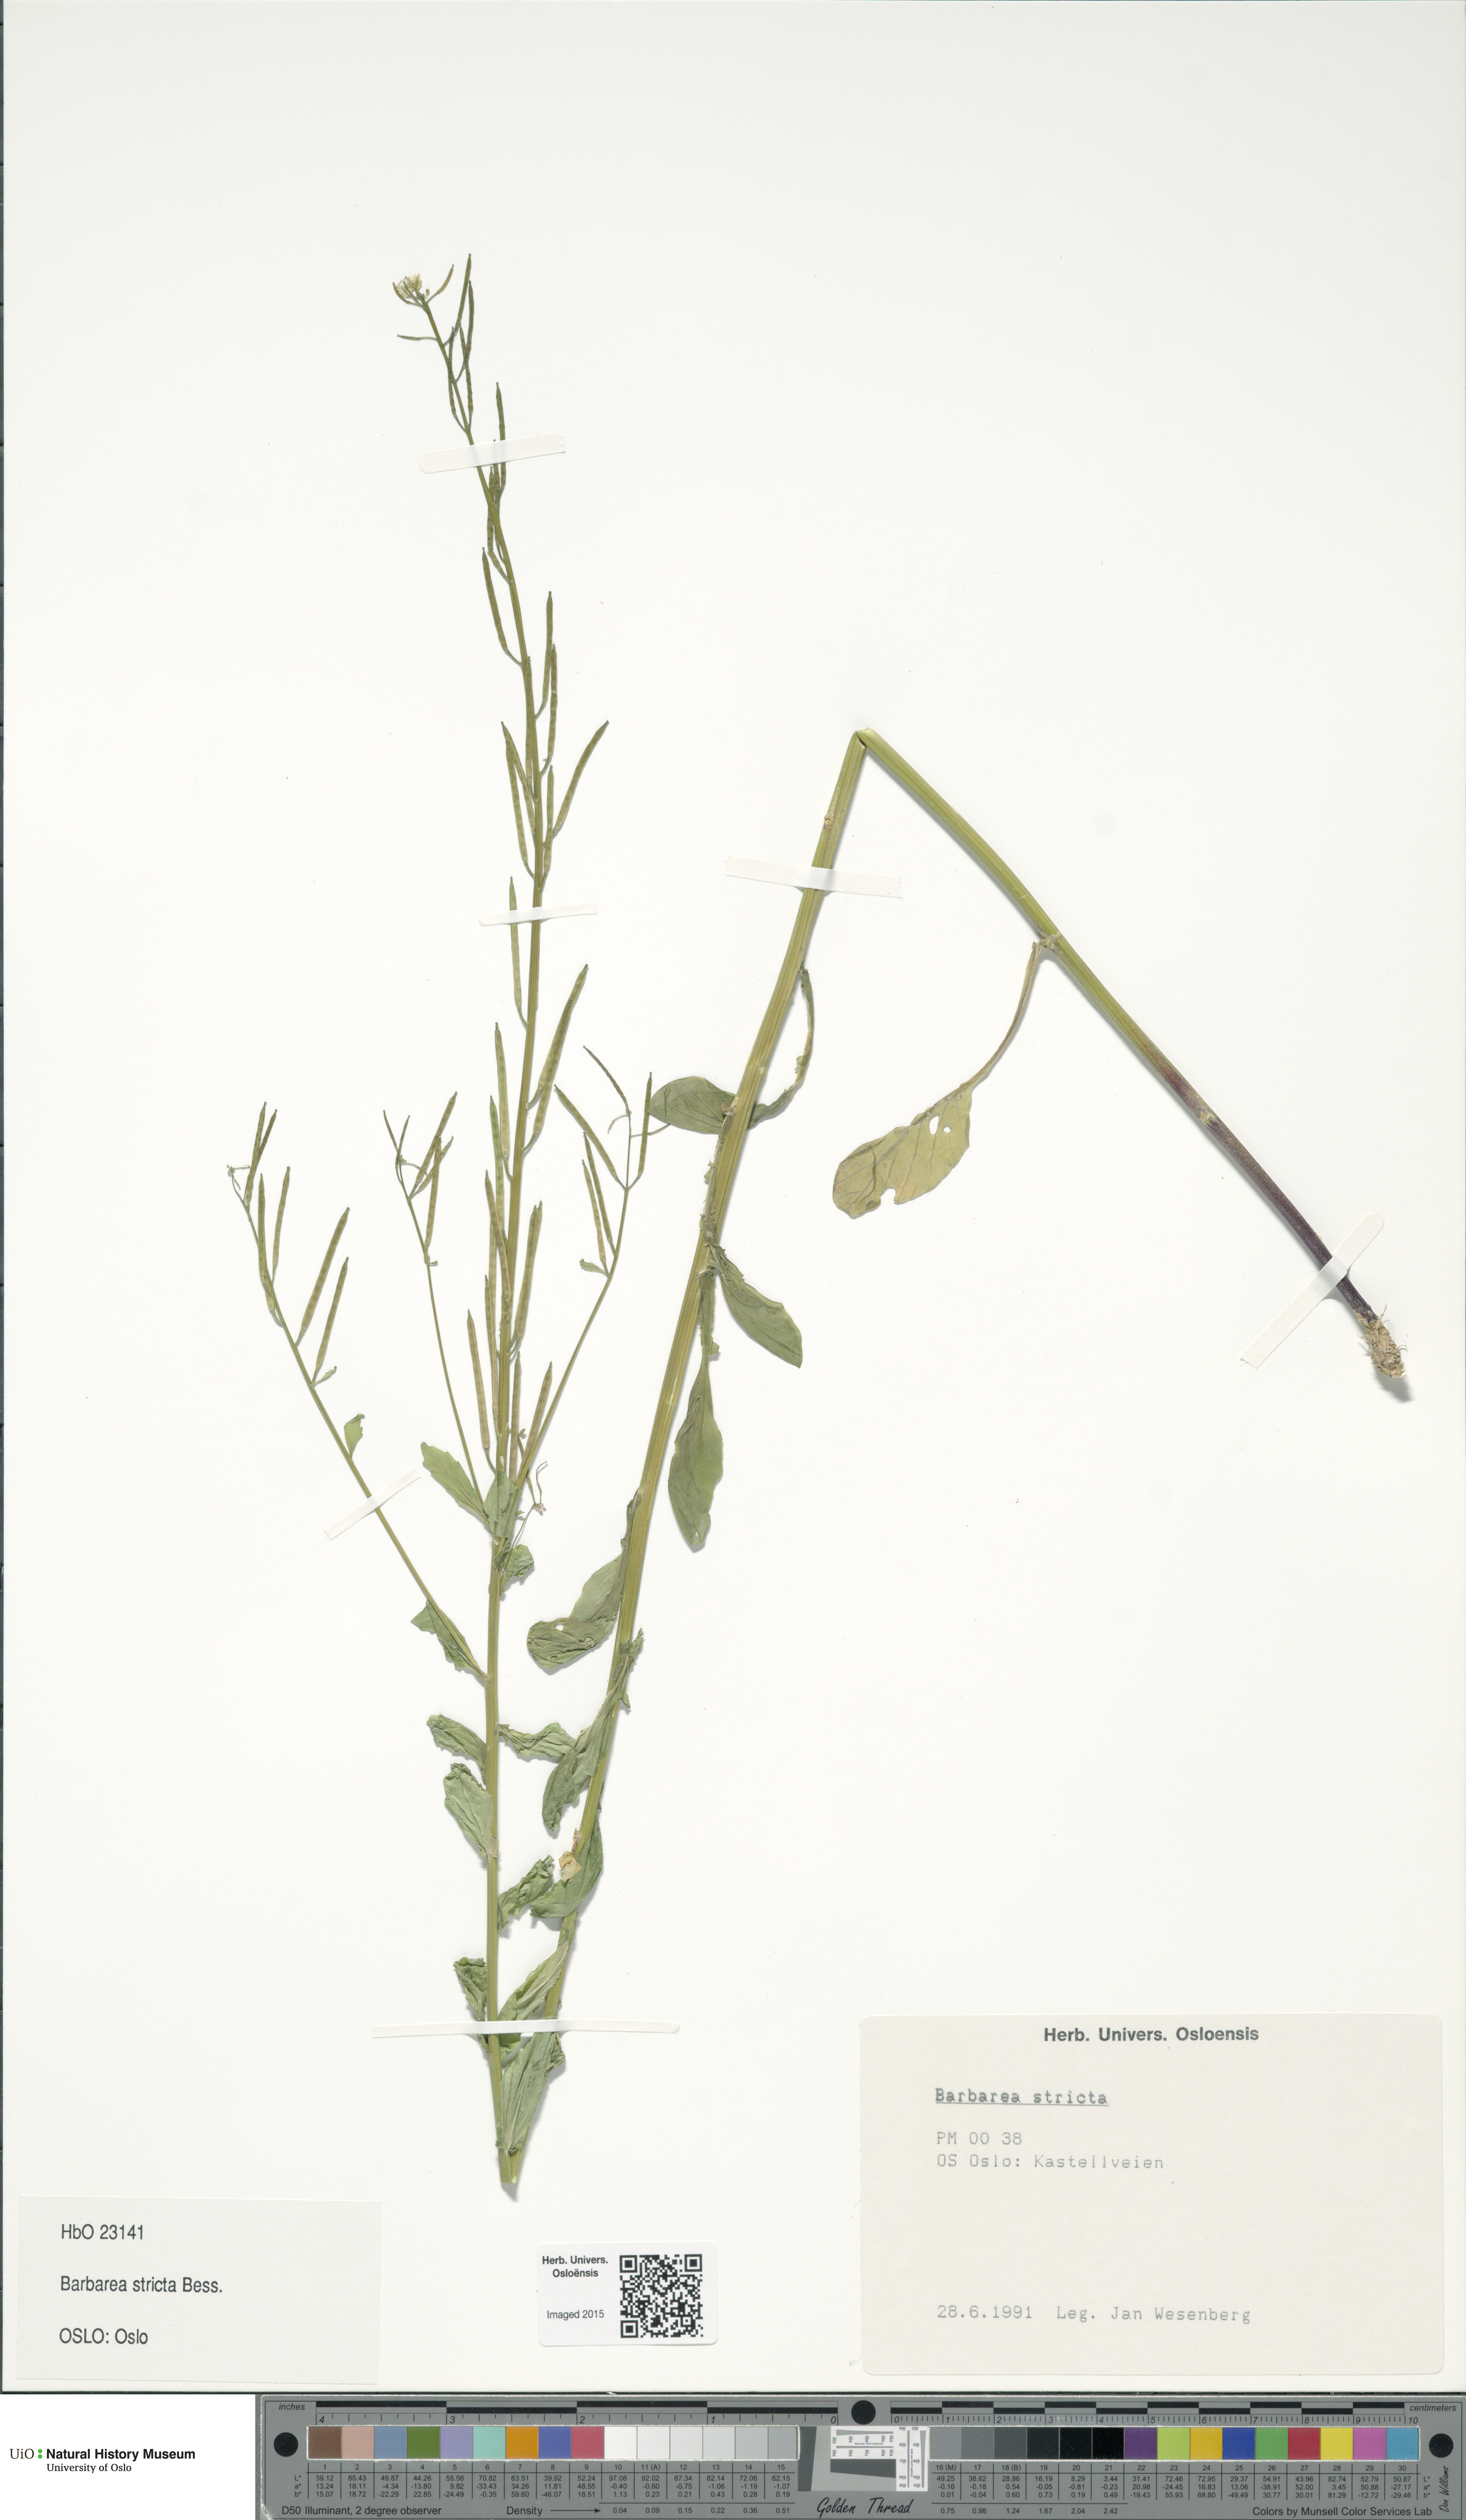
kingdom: Plantae
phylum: Tracheophyta
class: Magnoliopsida
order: Brassicales
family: Brassicaceae
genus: Barbarea
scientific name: Barbarea stricta
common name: Small-flowered winter-cress
